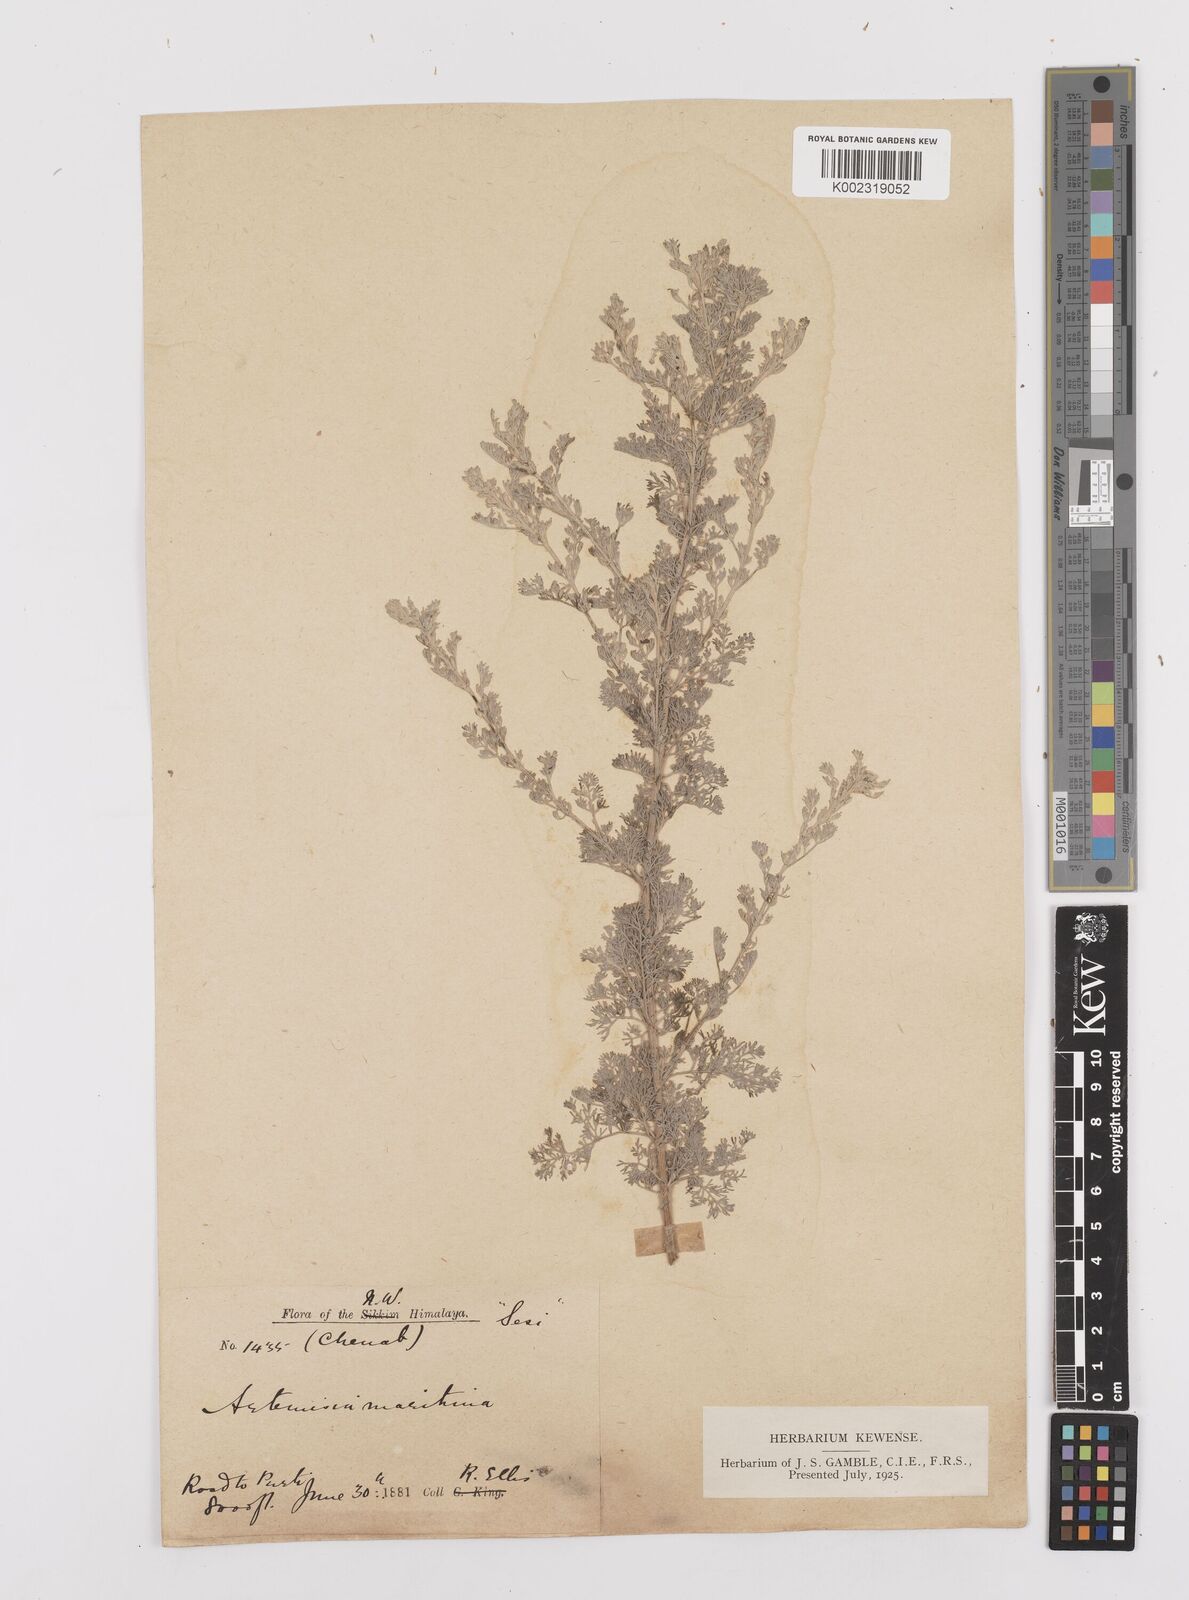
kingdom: Plantae
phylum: Tracheophyta
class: Magnoliopsida
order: Asterales
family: Asteraceae
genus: Artemisia
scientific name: Artemisia brevifolia
